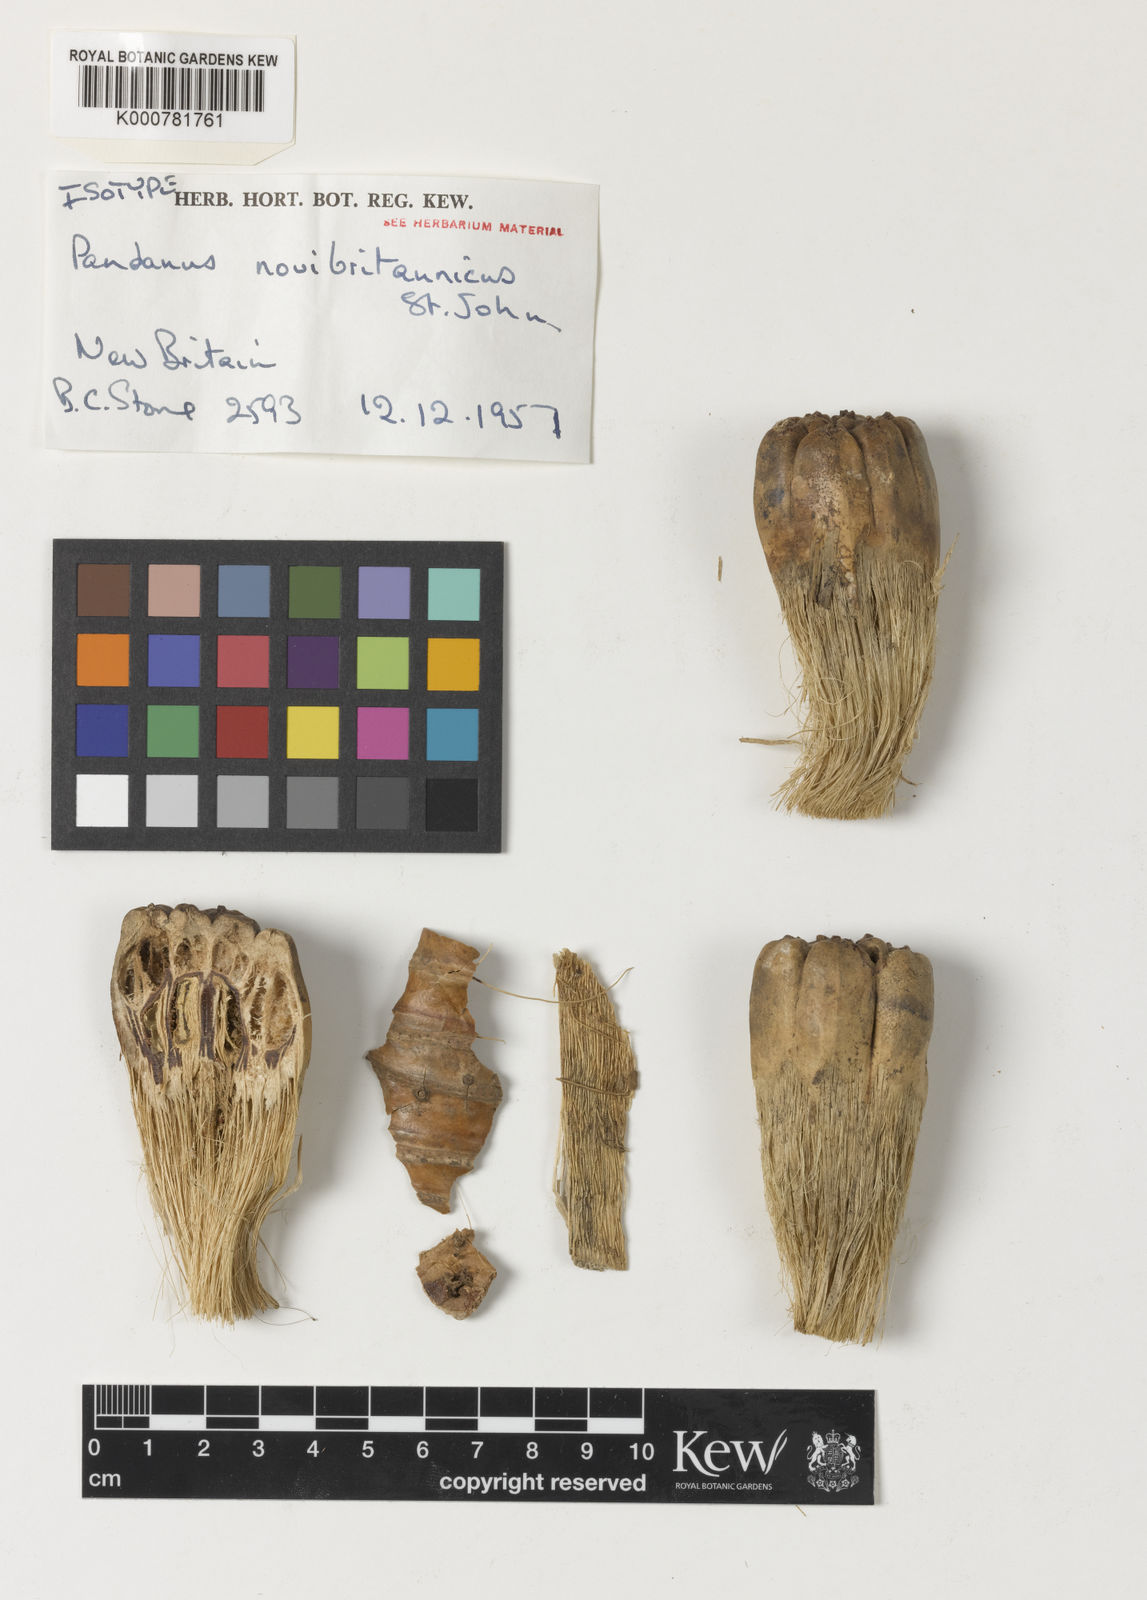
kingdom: Plantae
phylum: Tracheophyta
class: Liliopsida
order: Pandanales
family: Pandanaceae
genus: Pandanus
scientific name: Pandanus novibritannicus
